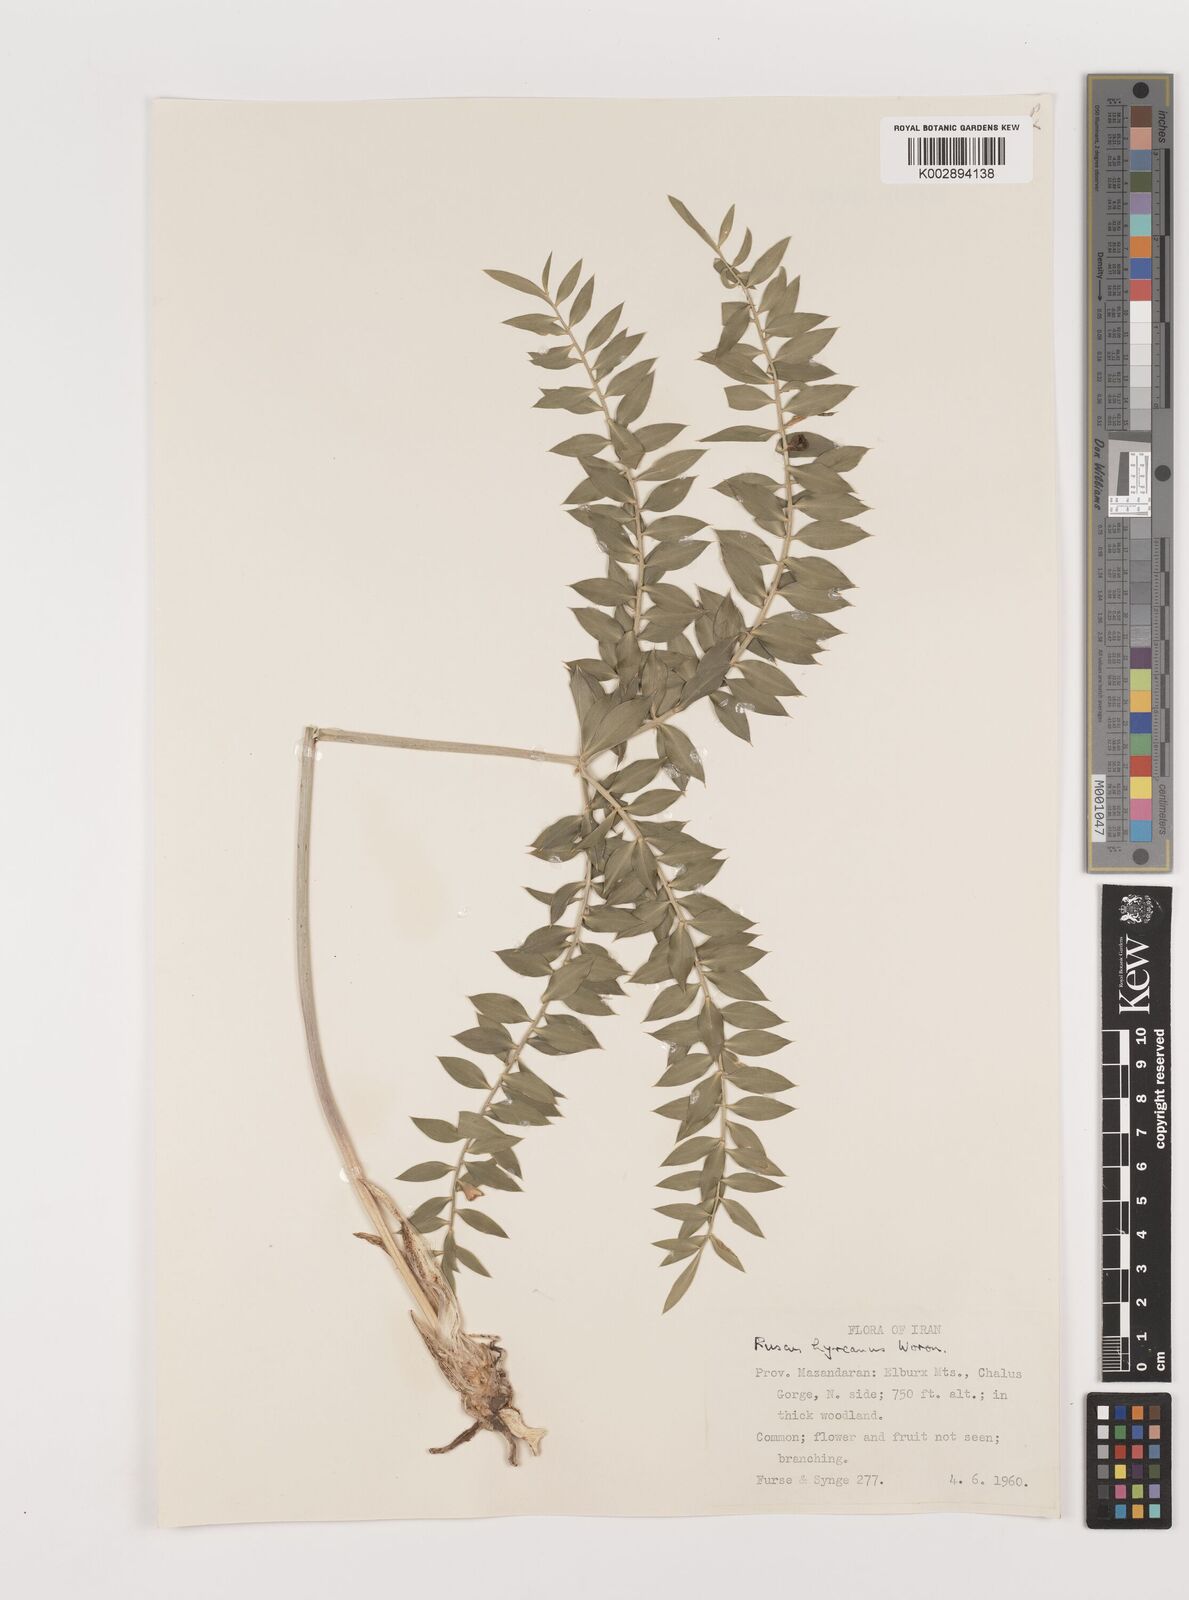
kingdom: Plantae
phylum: Tracheophyta
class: Liliopsida
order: Asparagales
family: Asparagaceae
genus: Ruscus
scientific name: Ruscus hyrcanus
